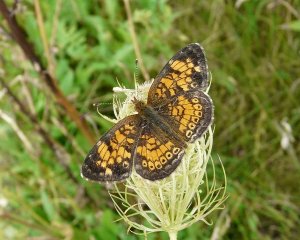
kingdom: Animalia
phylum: Arthropoda
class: Insecta
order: Lepidoptera
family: Nymphalidae
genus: Phyciodes
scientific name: Phyciodes tharos
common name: Northern Crescent
